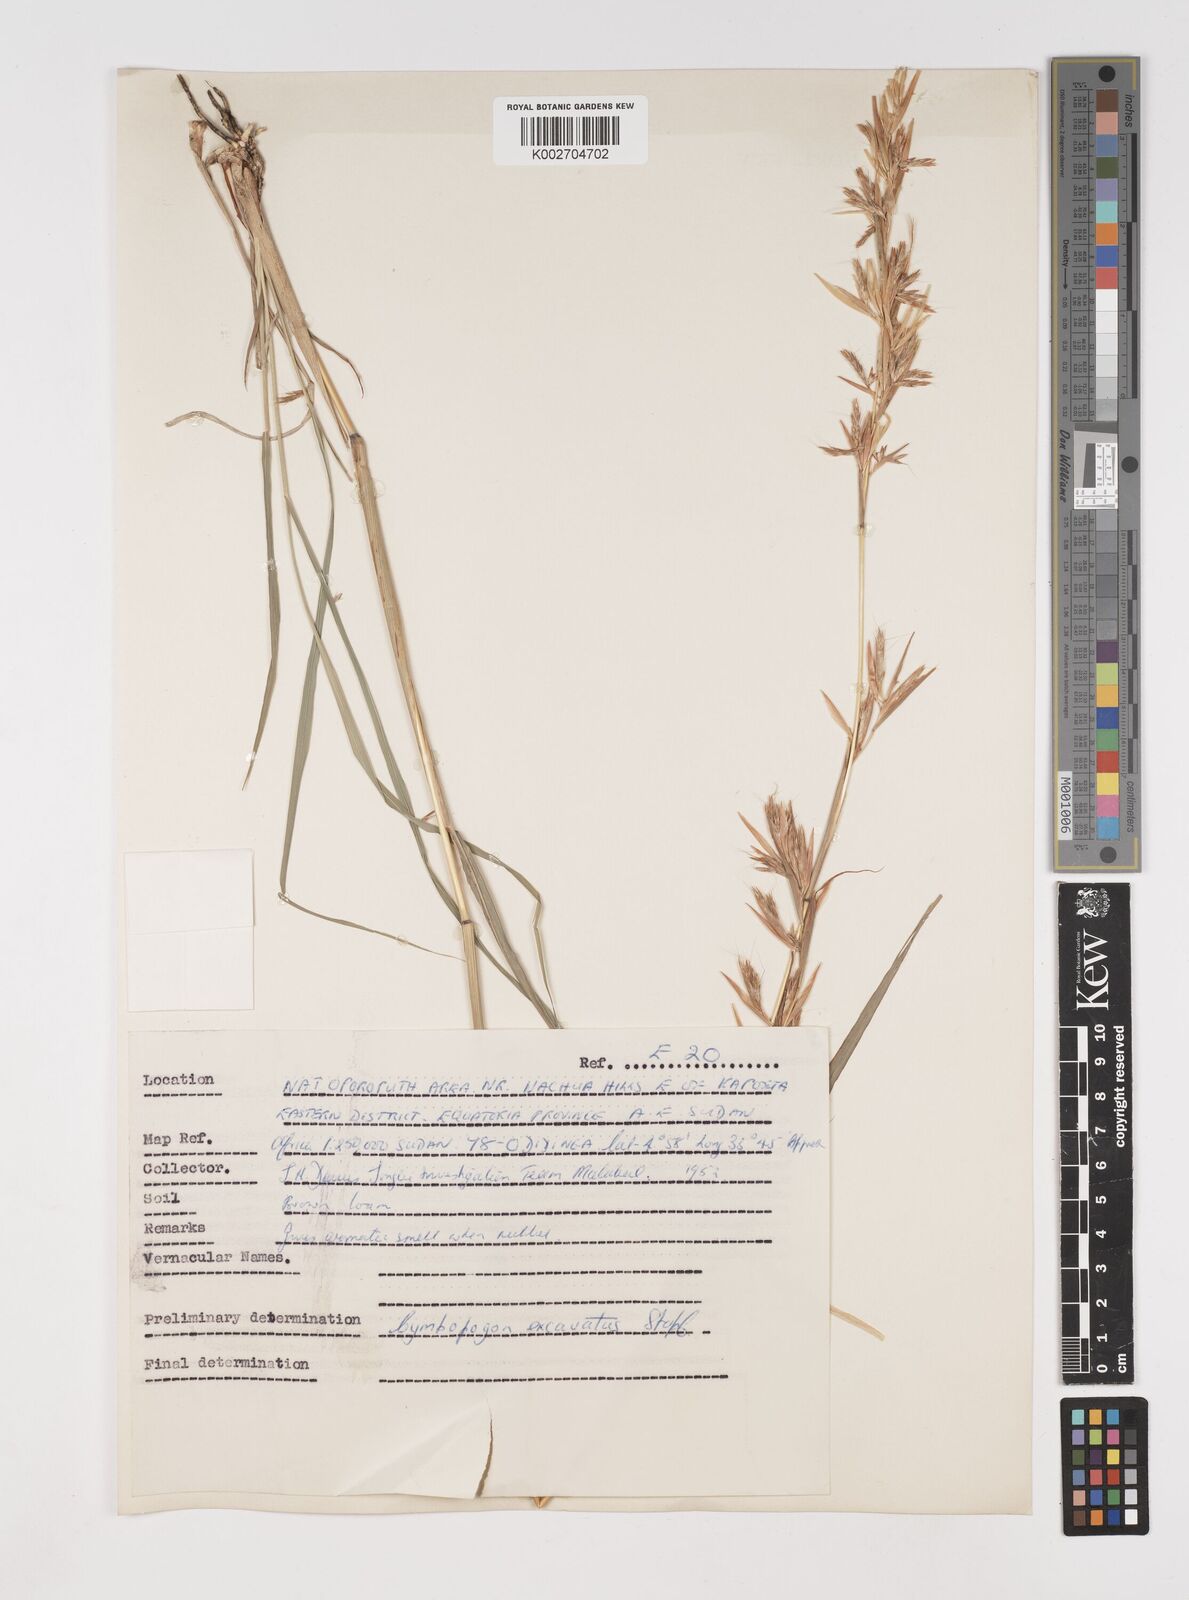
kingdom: Plantae
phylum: Tracheophyta
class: Liliopsida
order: Poales
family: Poaceae
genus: Cymbopogon
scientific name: Cymbopogon caesius
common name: Kachi grass
